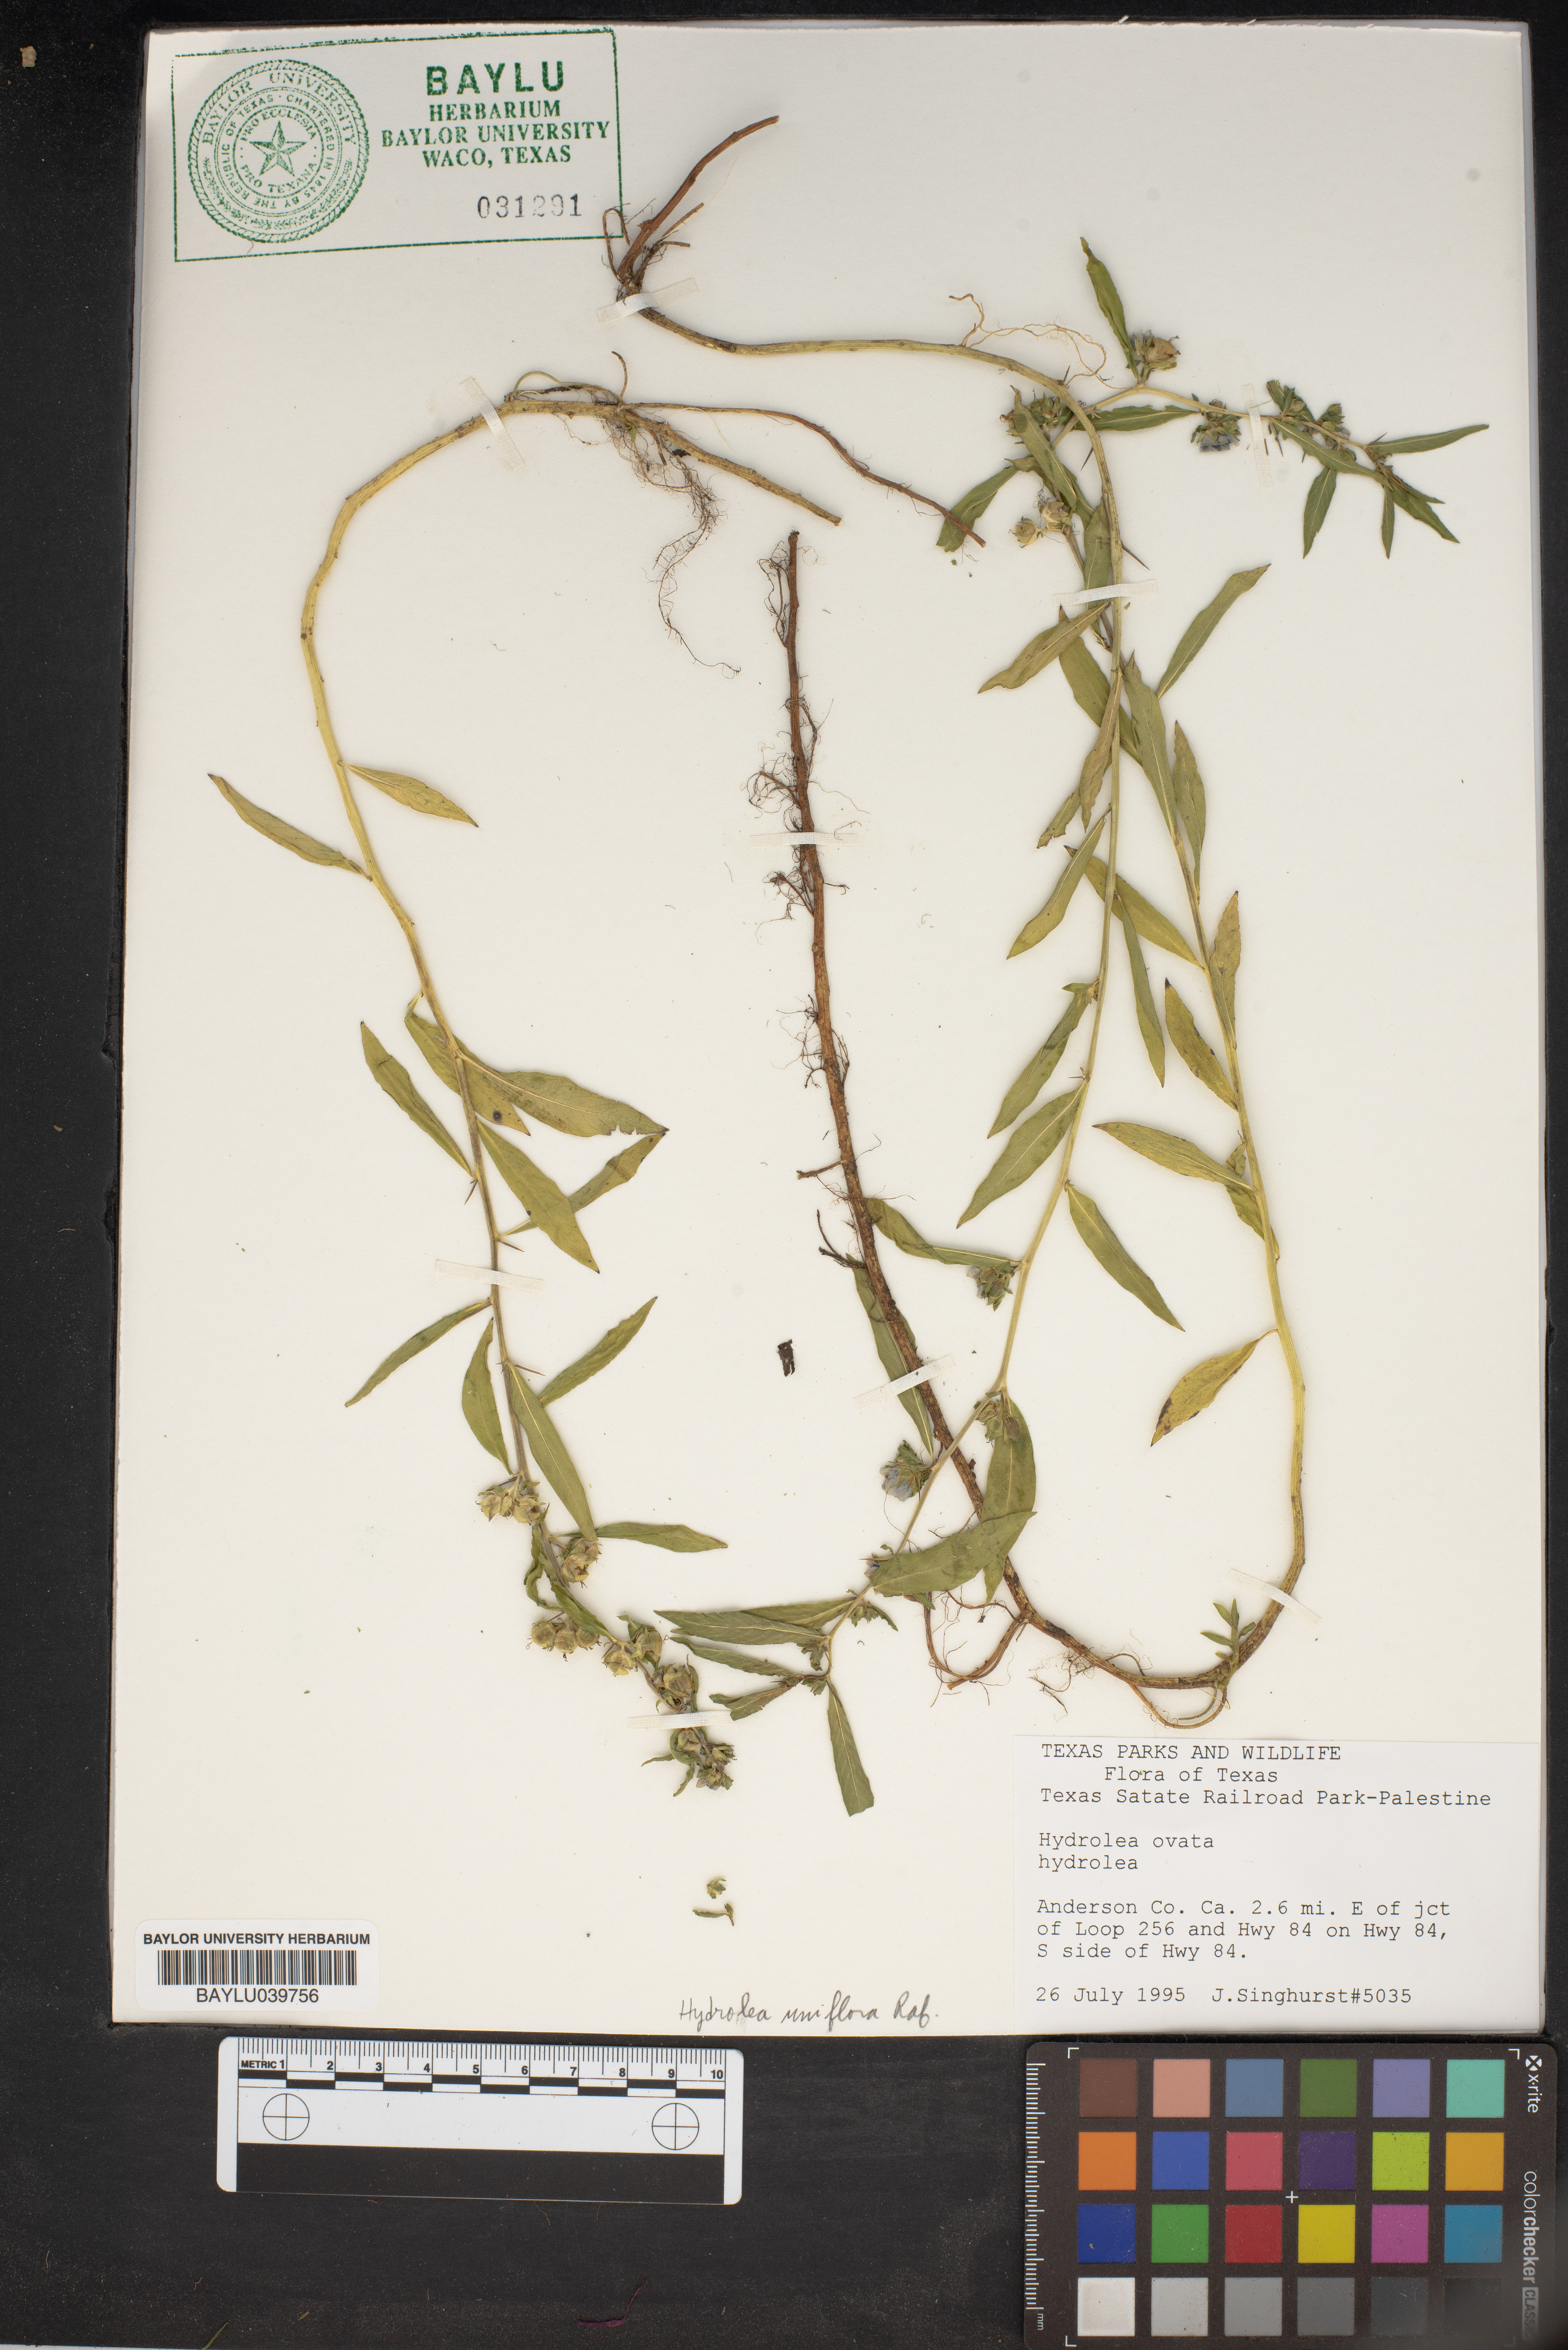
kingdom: Plantae
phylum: Tracheophyta
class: Magnoliopsida
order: Solanales
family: Hydroleaceae
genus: Hydrolea
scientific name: Hydrolea ovata
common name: Ovate false fiddleleaf
